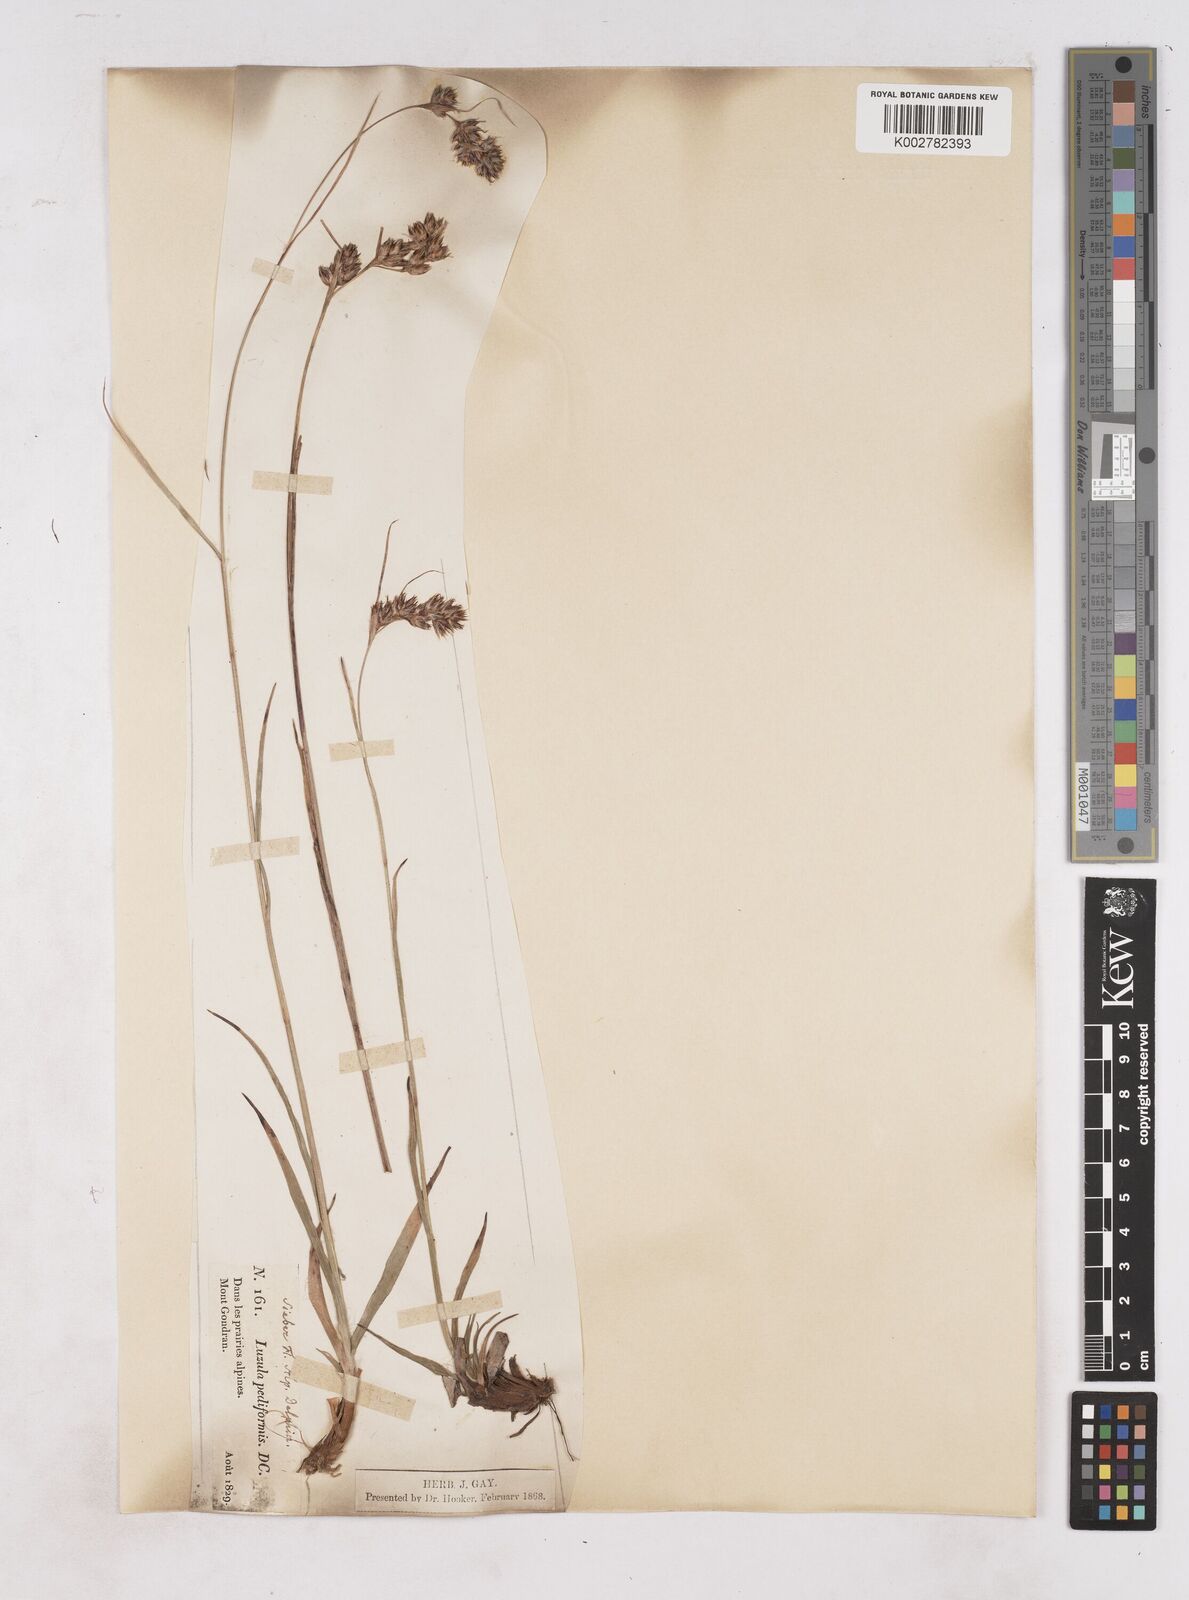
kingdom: Plantae
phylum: Tracheophyta
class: Liliopsida
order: Poales
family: Juncaceae
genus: Luzula
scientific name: Luzula pediformis
